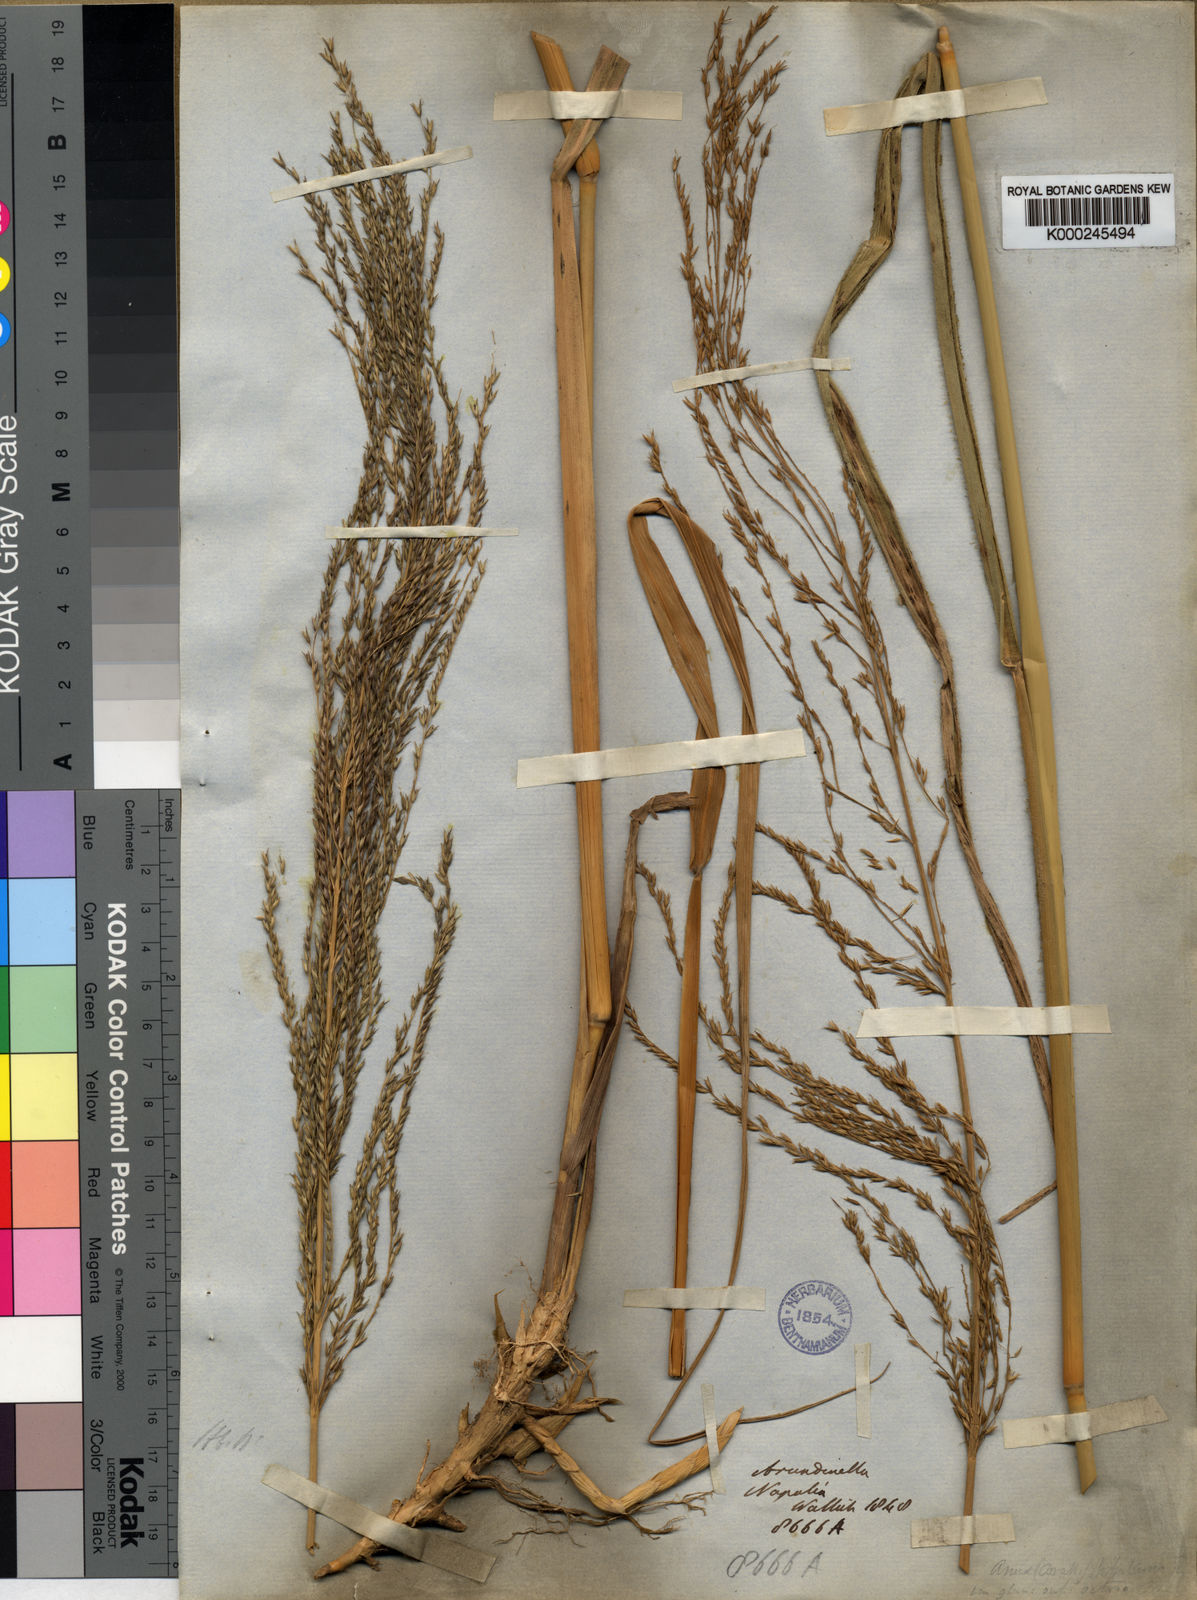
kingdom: Plantae
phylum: Tracheophyta
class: Liliopsida
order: Poales
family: Poaceae
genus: Arundinella
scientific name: Arundinella nepalensis
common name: Reed grass
